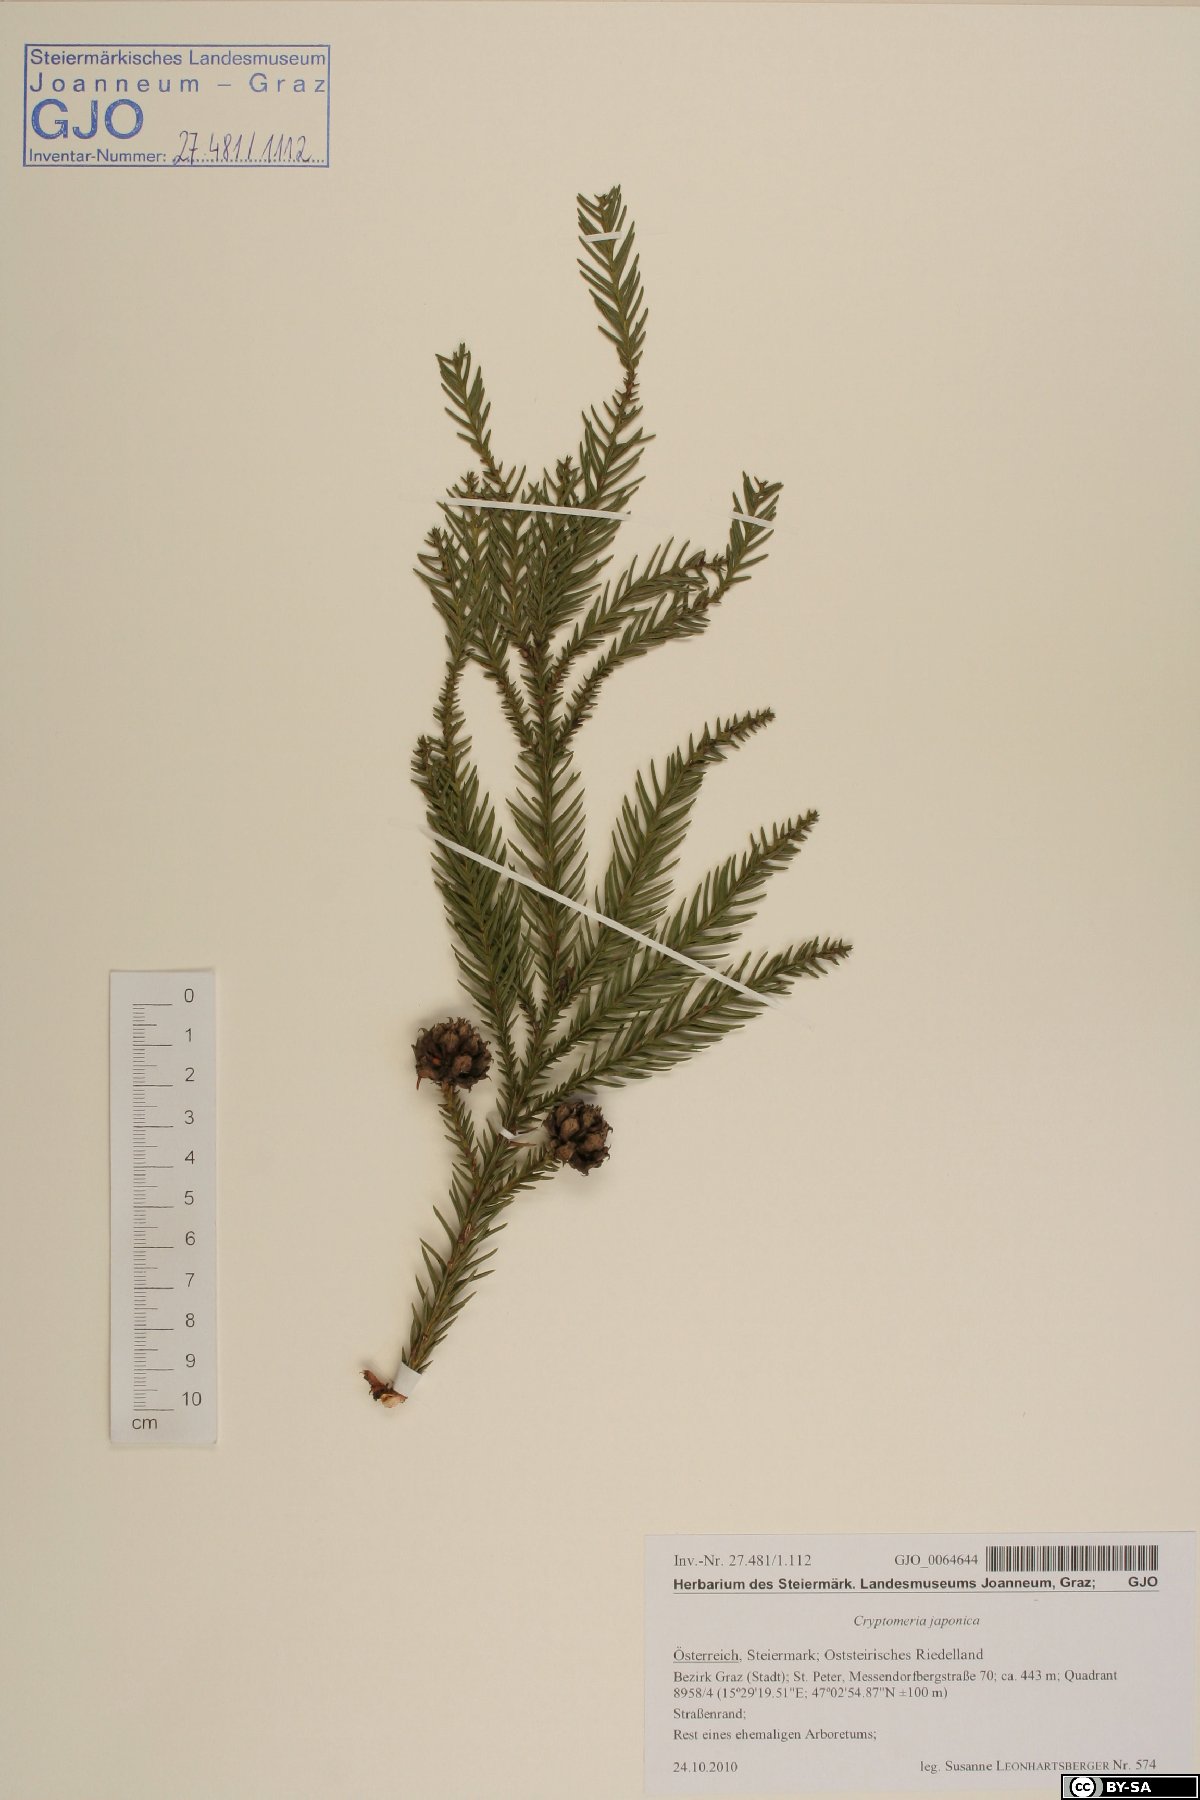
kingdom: Plantae
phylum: Tracheophyta
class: Pinopsida
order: Pinales
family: Cupressaceae
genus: Cryptomeria
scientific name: Cryptomeria japonica
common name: Japanese cedar
